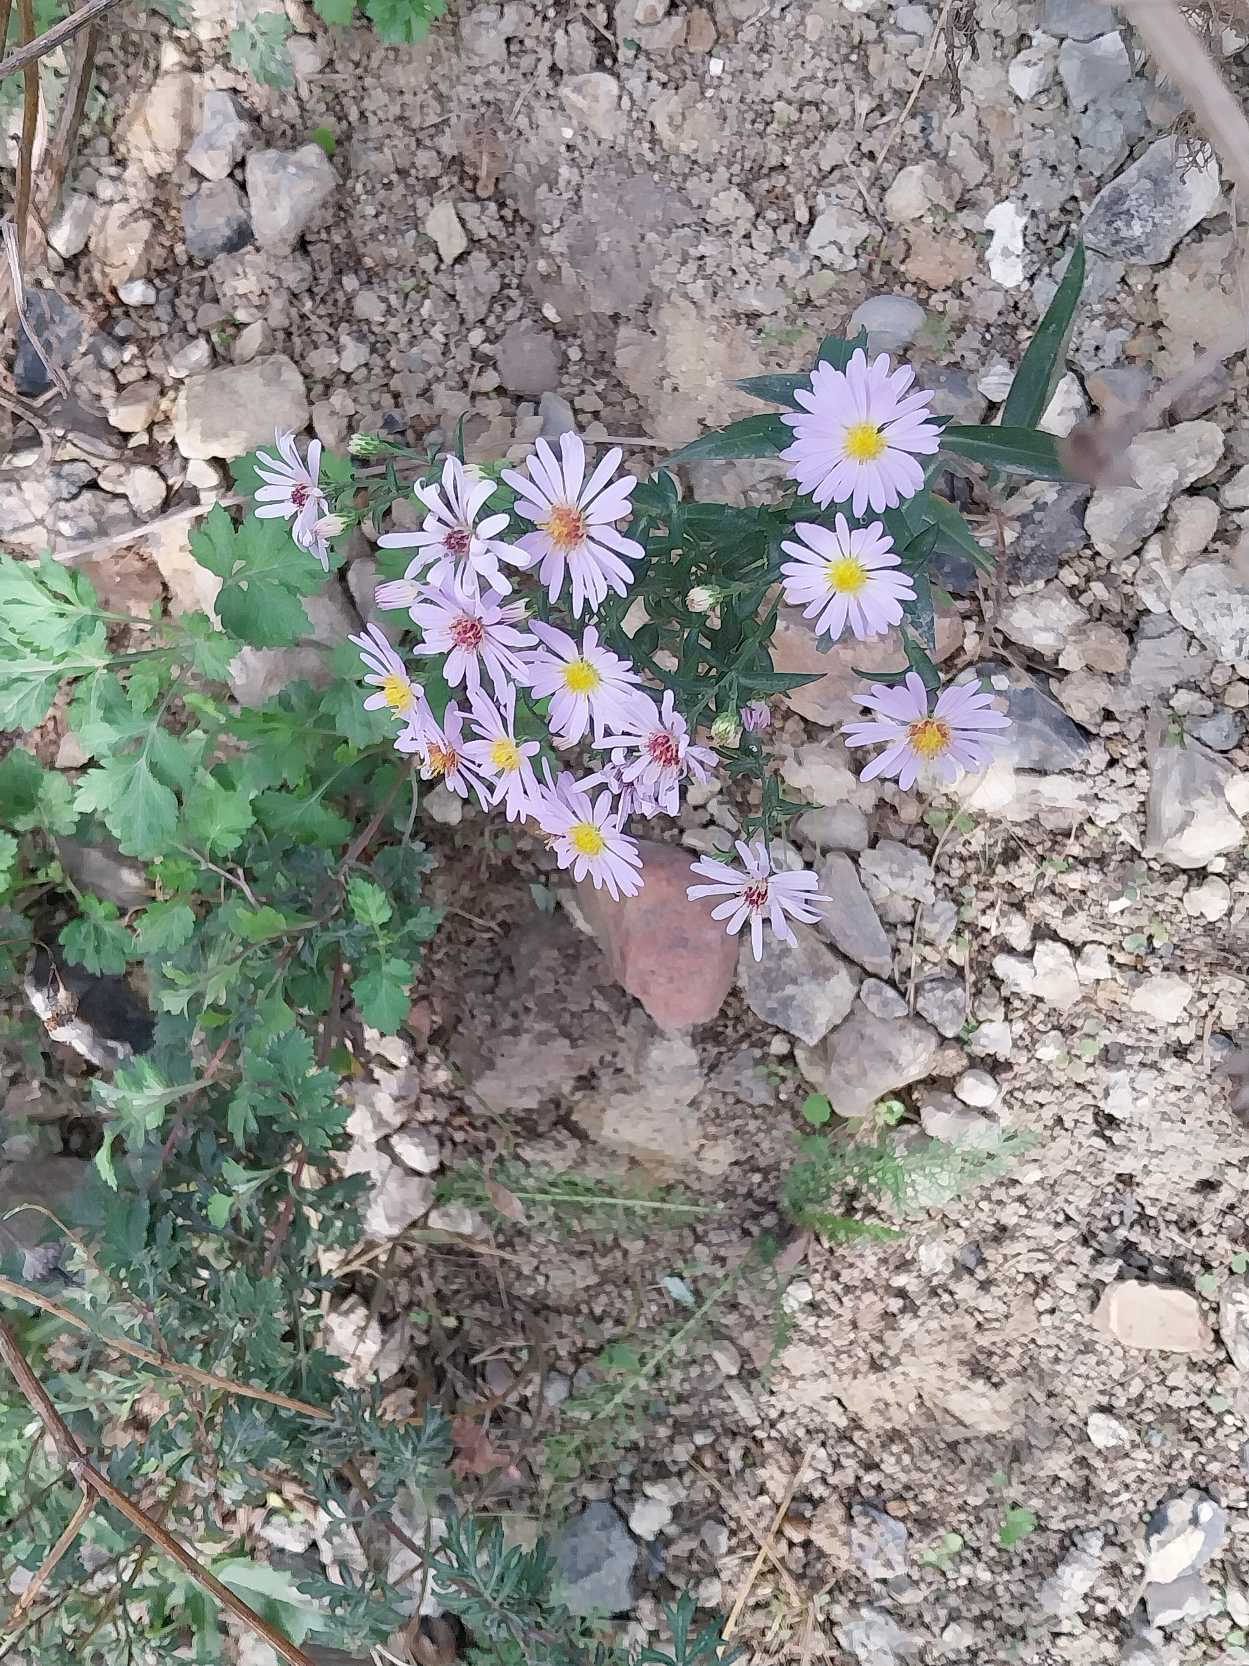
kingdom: Plantae
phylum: Tracheophyta
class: Magnoliopsida
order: Asterales
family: Asteraceae
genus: Symphyotrichum
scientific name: Symphyotrichum versicolor
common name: Broget asters
